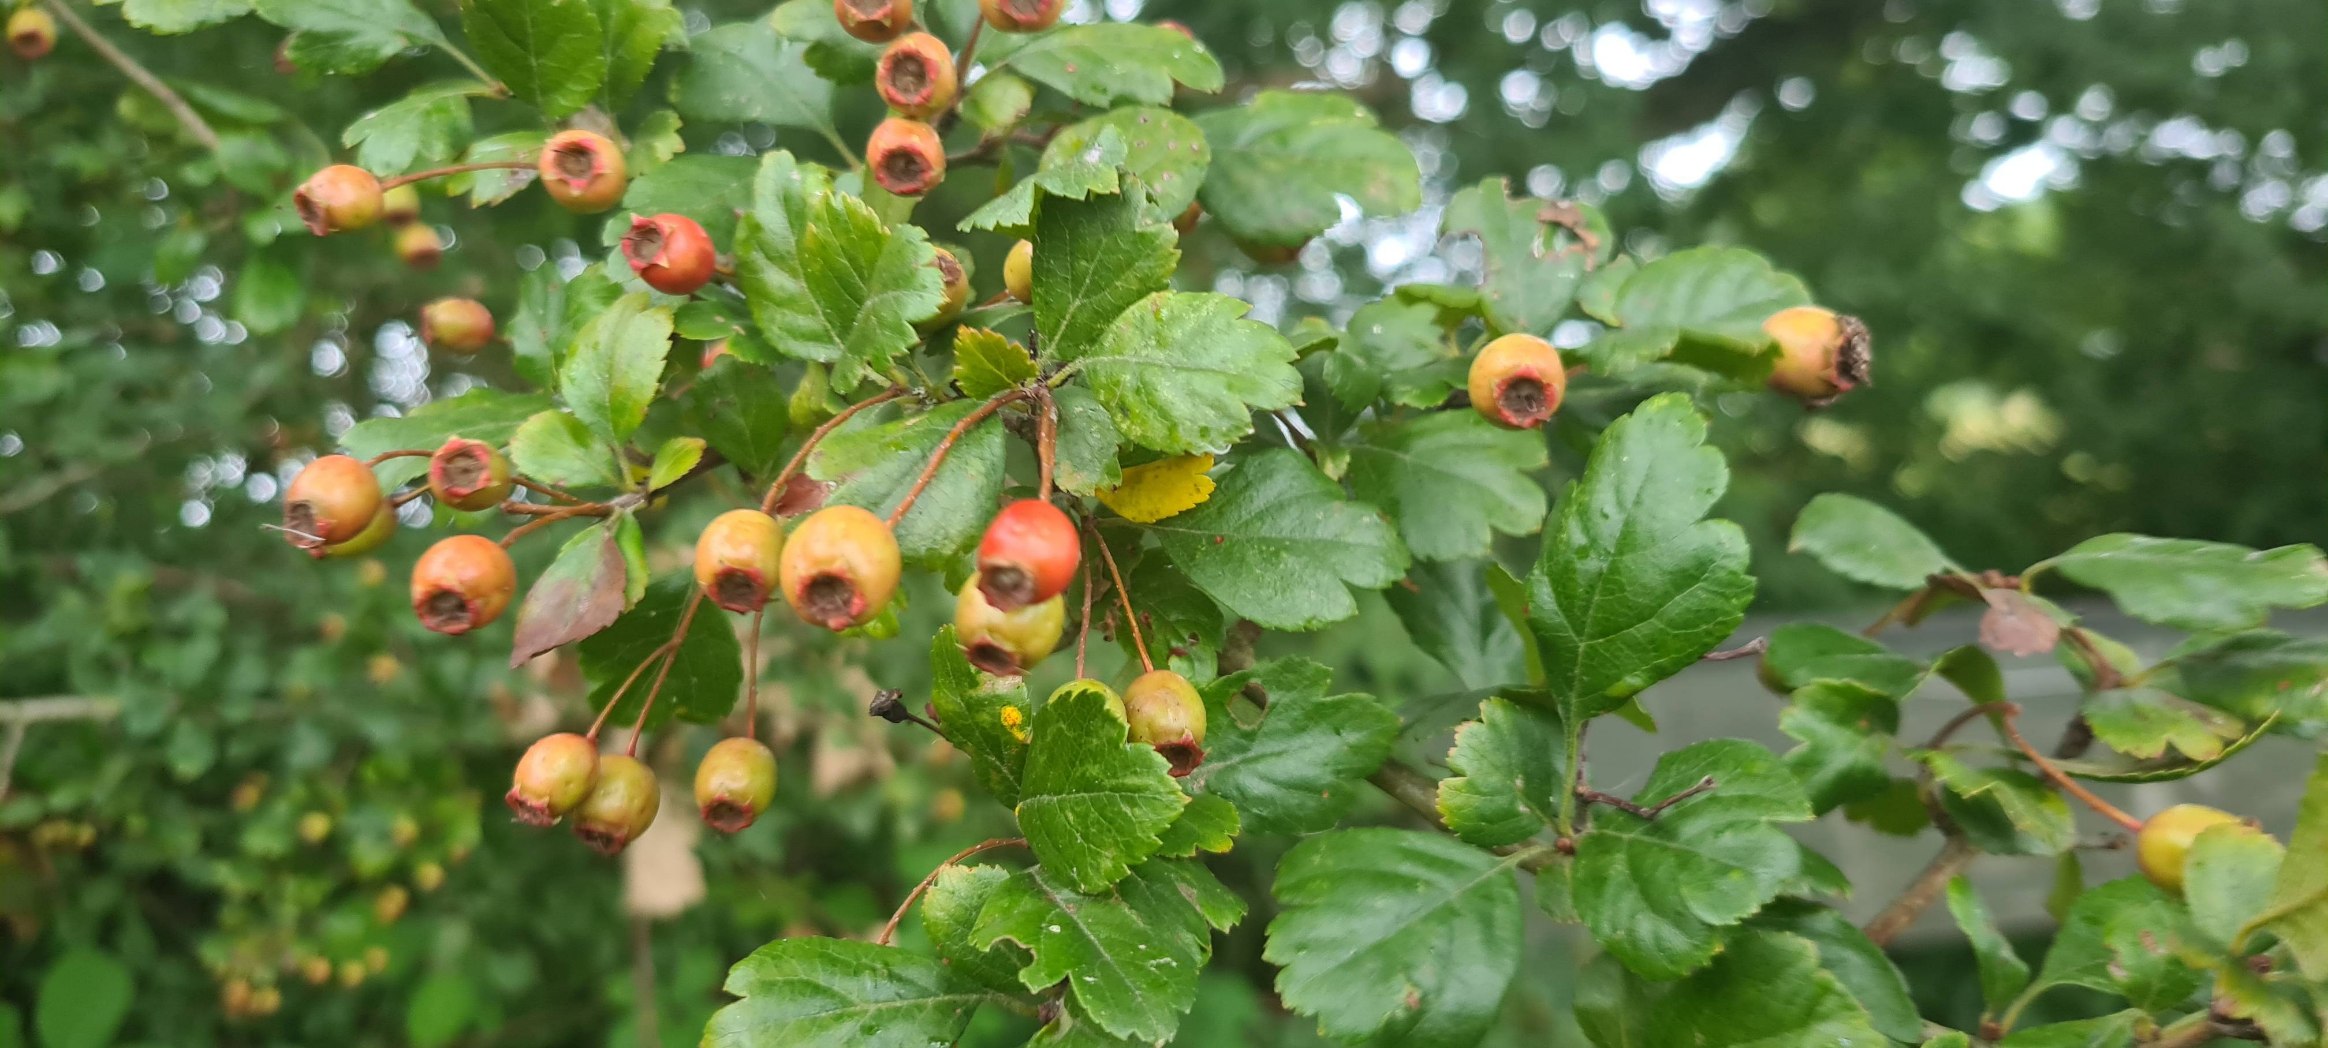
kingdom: Plantae
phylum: Tracheophyta
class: Magnoliopsida
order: Rosales
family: Rosaceae
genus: Crataegus
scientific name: Crataegus laevigata
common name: Almindelig hvidtjørn
